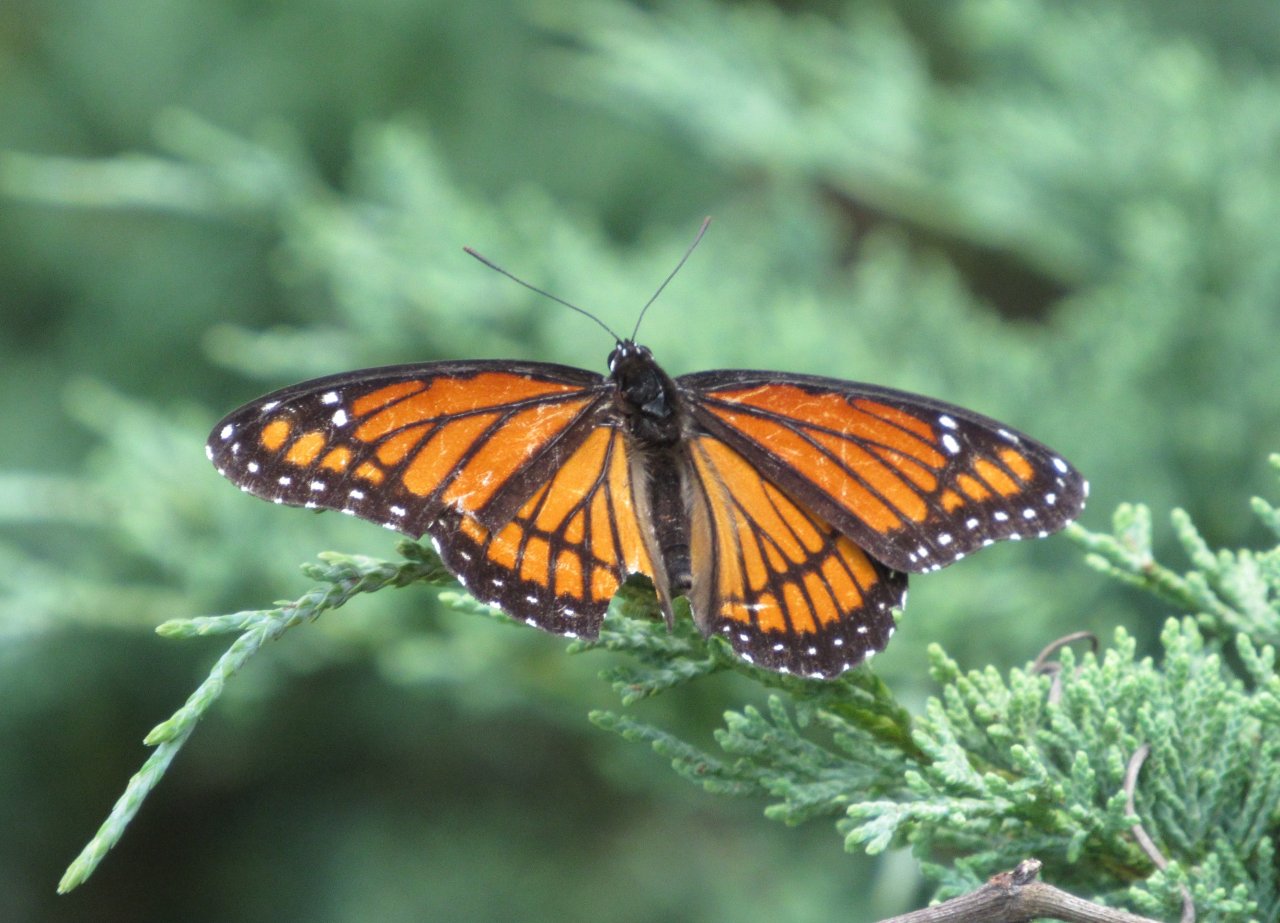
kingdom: Animalia
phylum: Arthropoda
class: Insecta
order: Lepidoptera
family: Nymphalidae
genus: Limenitis
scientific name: Limenitis archippus
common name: Viceroy
